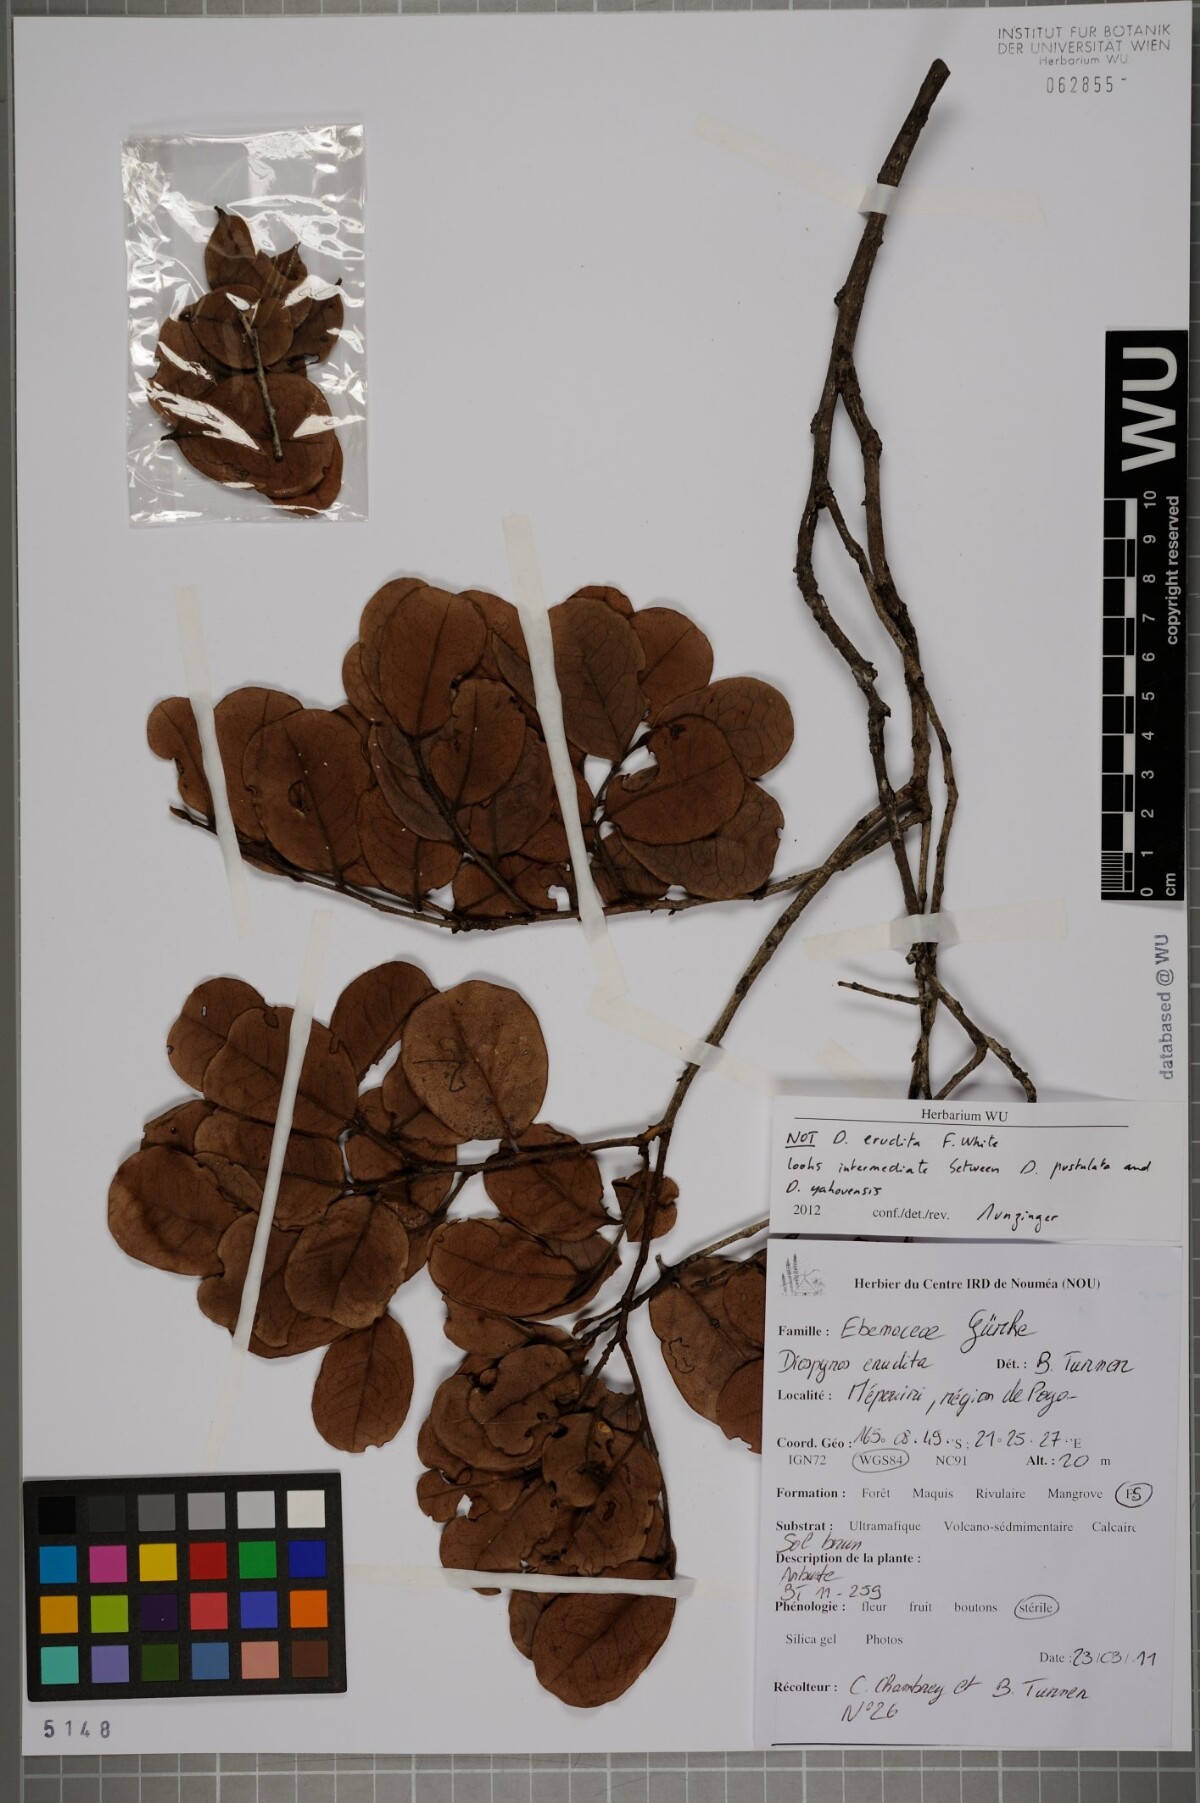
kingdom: Plantae
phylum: Tracheophyta
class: Magnoliopsida
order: Ericales
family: Ebenaceae
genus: Diospyros
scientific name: Diospyros
